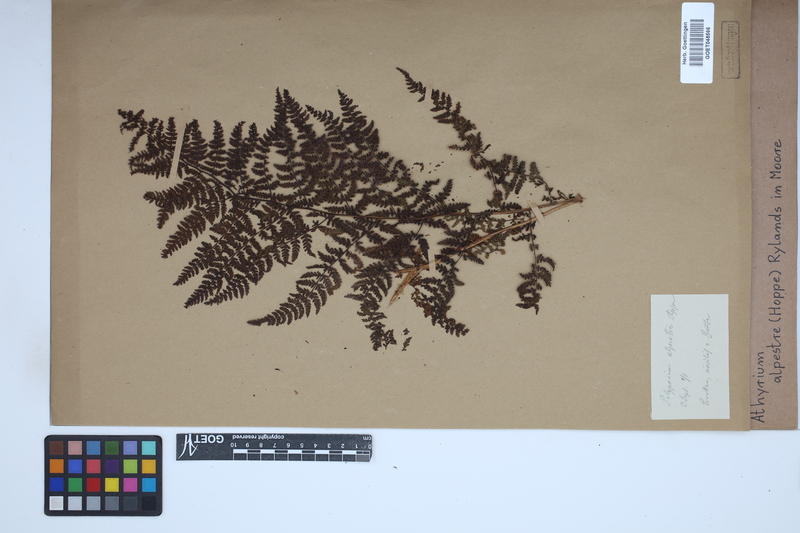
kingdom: Plantae
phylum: Tracheophyta
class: Polypodiopsida
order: Polypodiales
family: Athyriaceae
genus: Pseudathyrium
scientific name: Pseudathyrium alpestre
